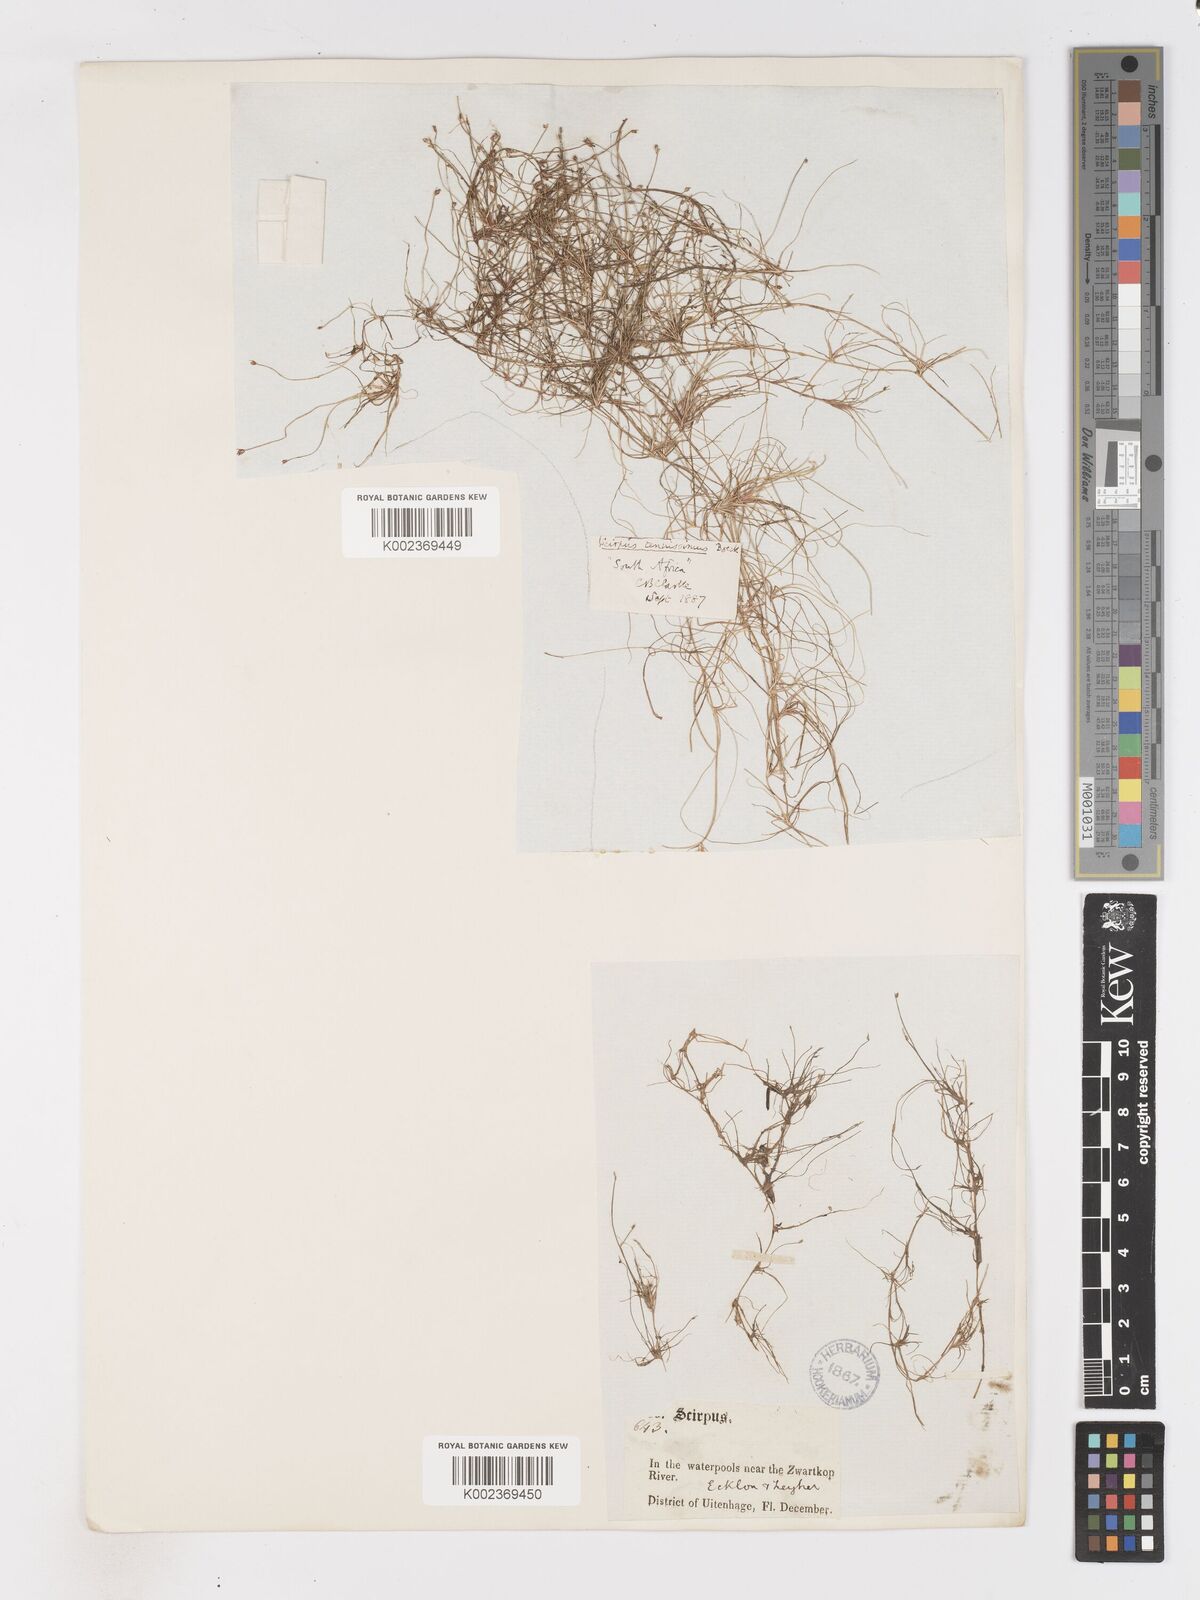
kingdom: Plantae
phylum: Tracheophyta
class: Liliopsida
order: Poales
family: Cyperaceae
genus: Isolepis
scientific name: Isolepis tenuissima
